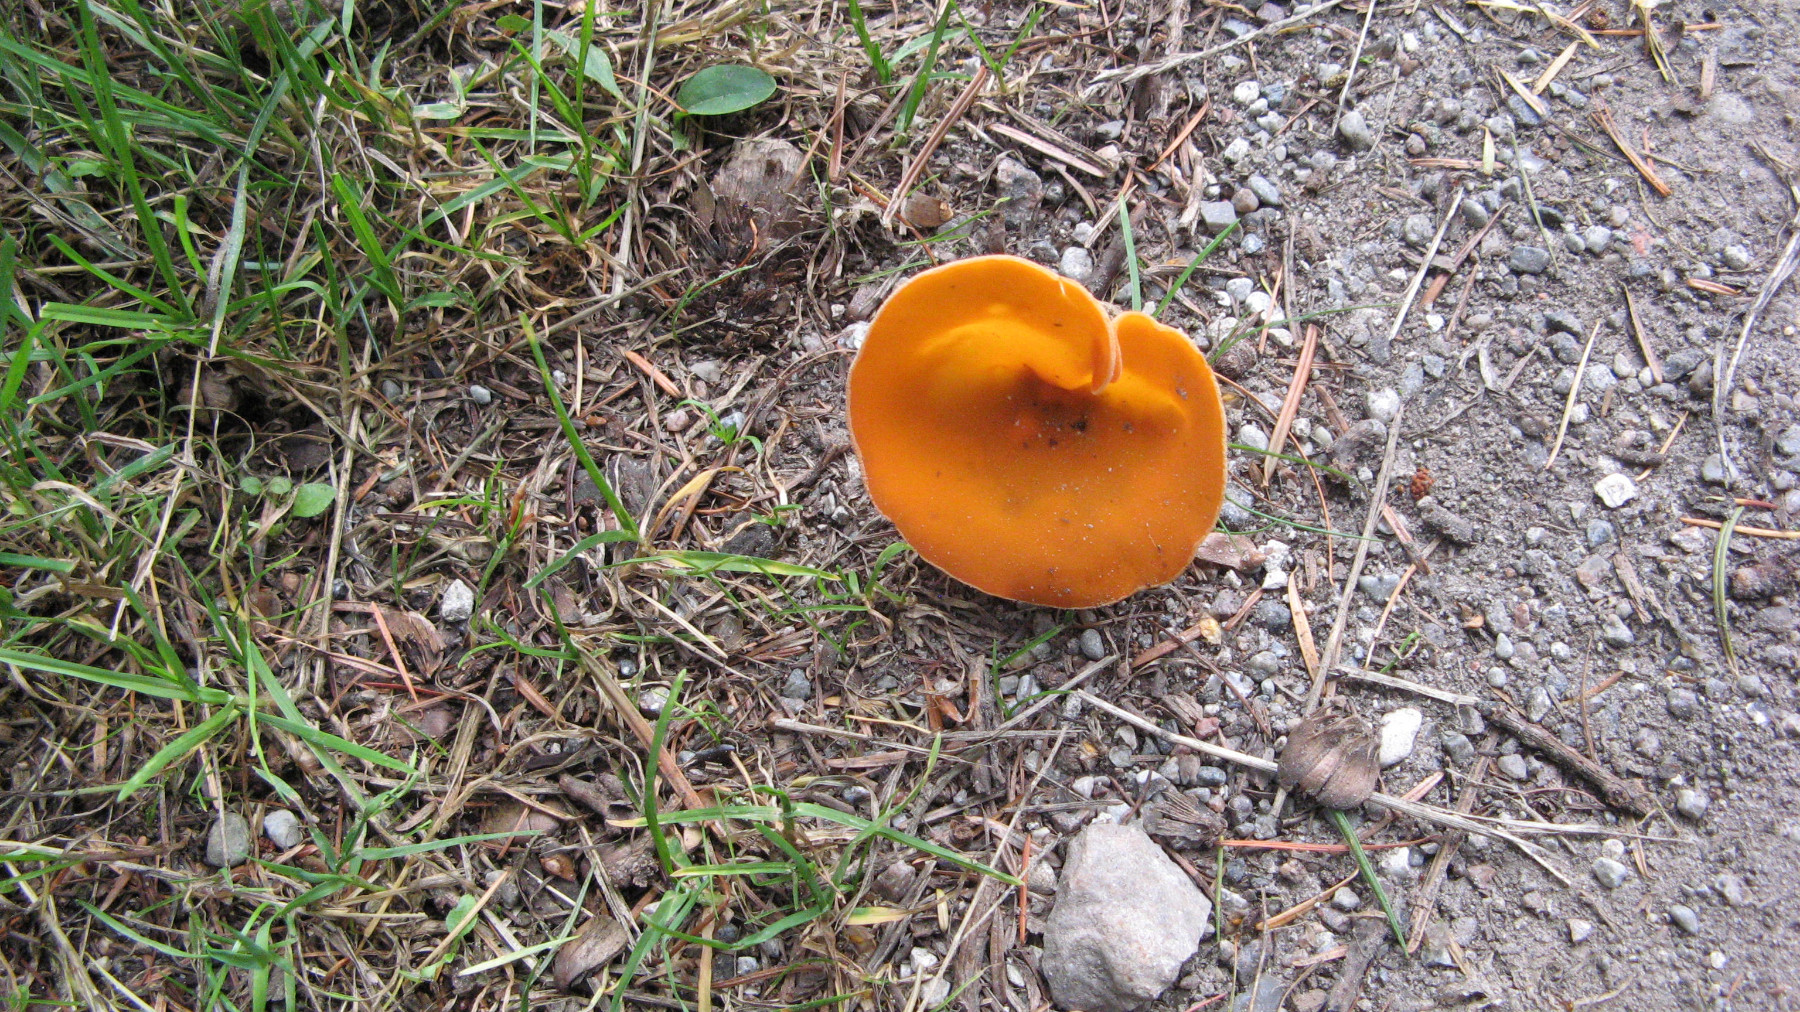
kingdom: Fungi
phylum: Ascomycota
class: Pezizomycetes
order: Pezizales
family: Pyronemataceae
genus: Aleuria
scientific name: Aleuria aurantia
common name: almindelig orangebæger
